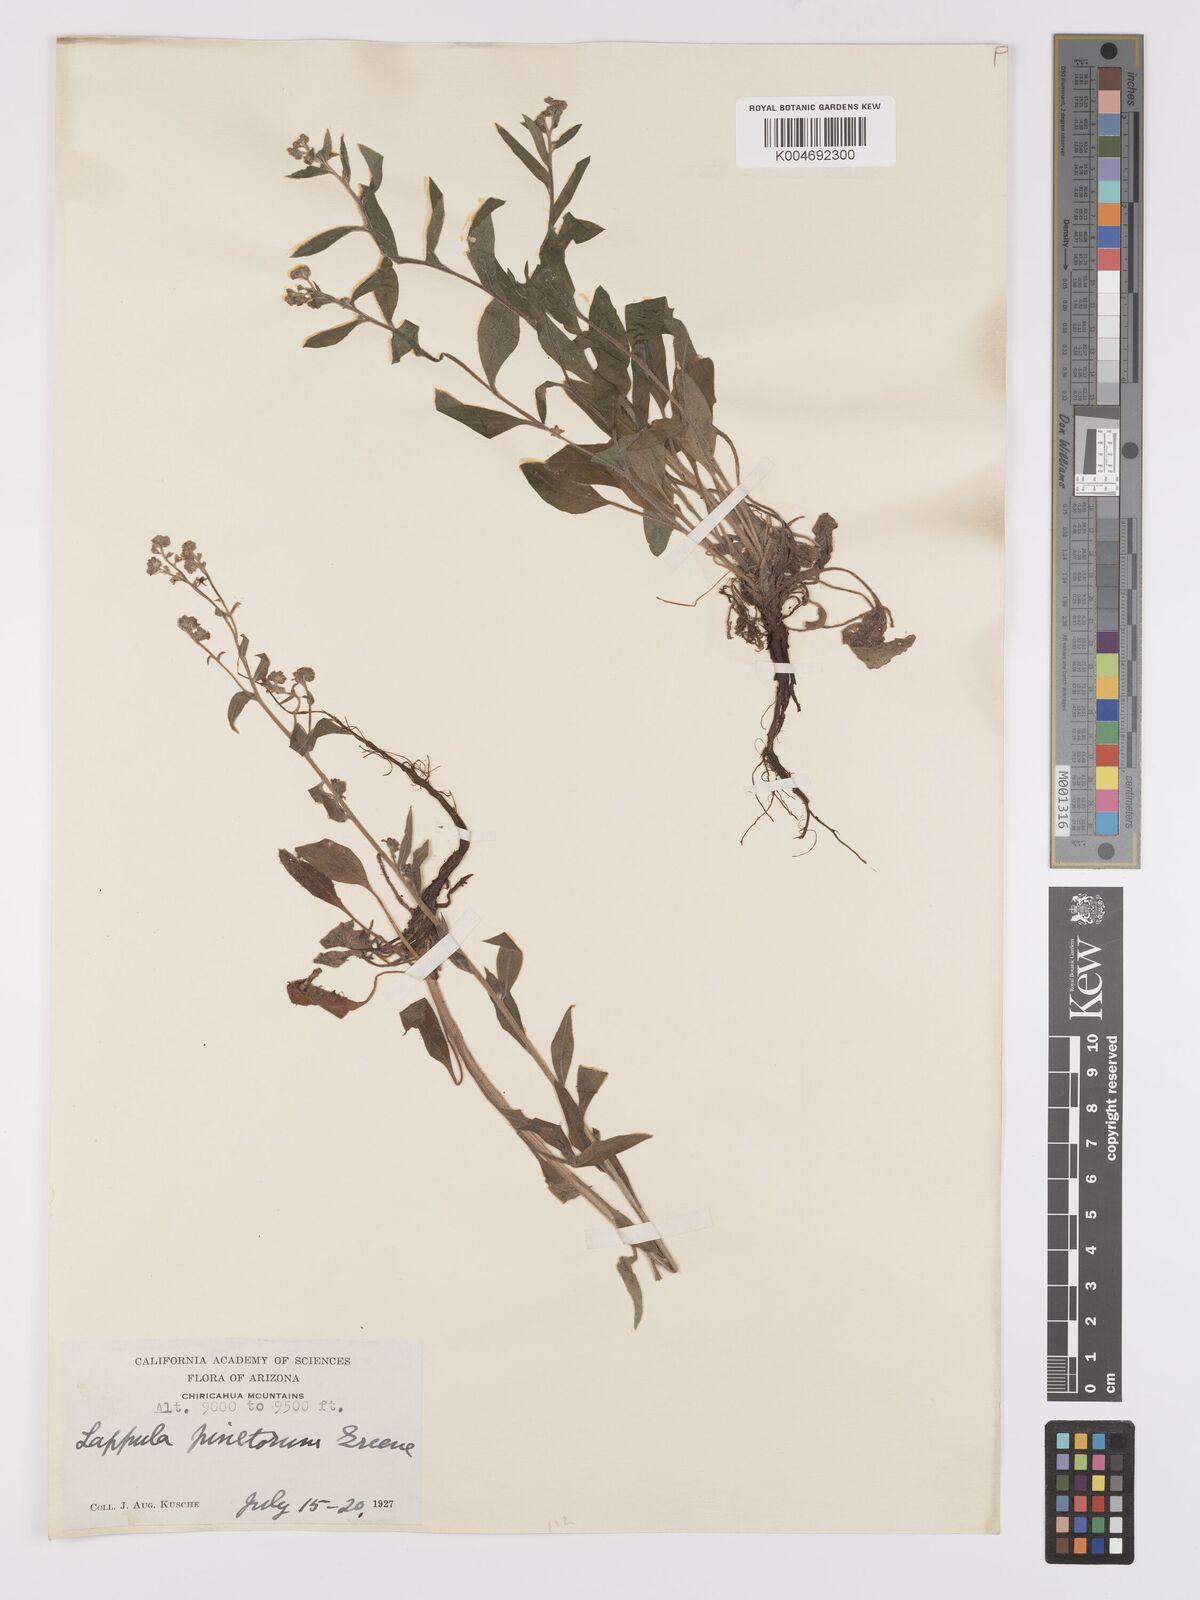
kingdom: Plantae
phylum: Tracheophyta
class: Magnoliopsida
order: Boraginales
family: Boraginaceae
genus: Hackelia
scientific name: Hackelia pinetorum
